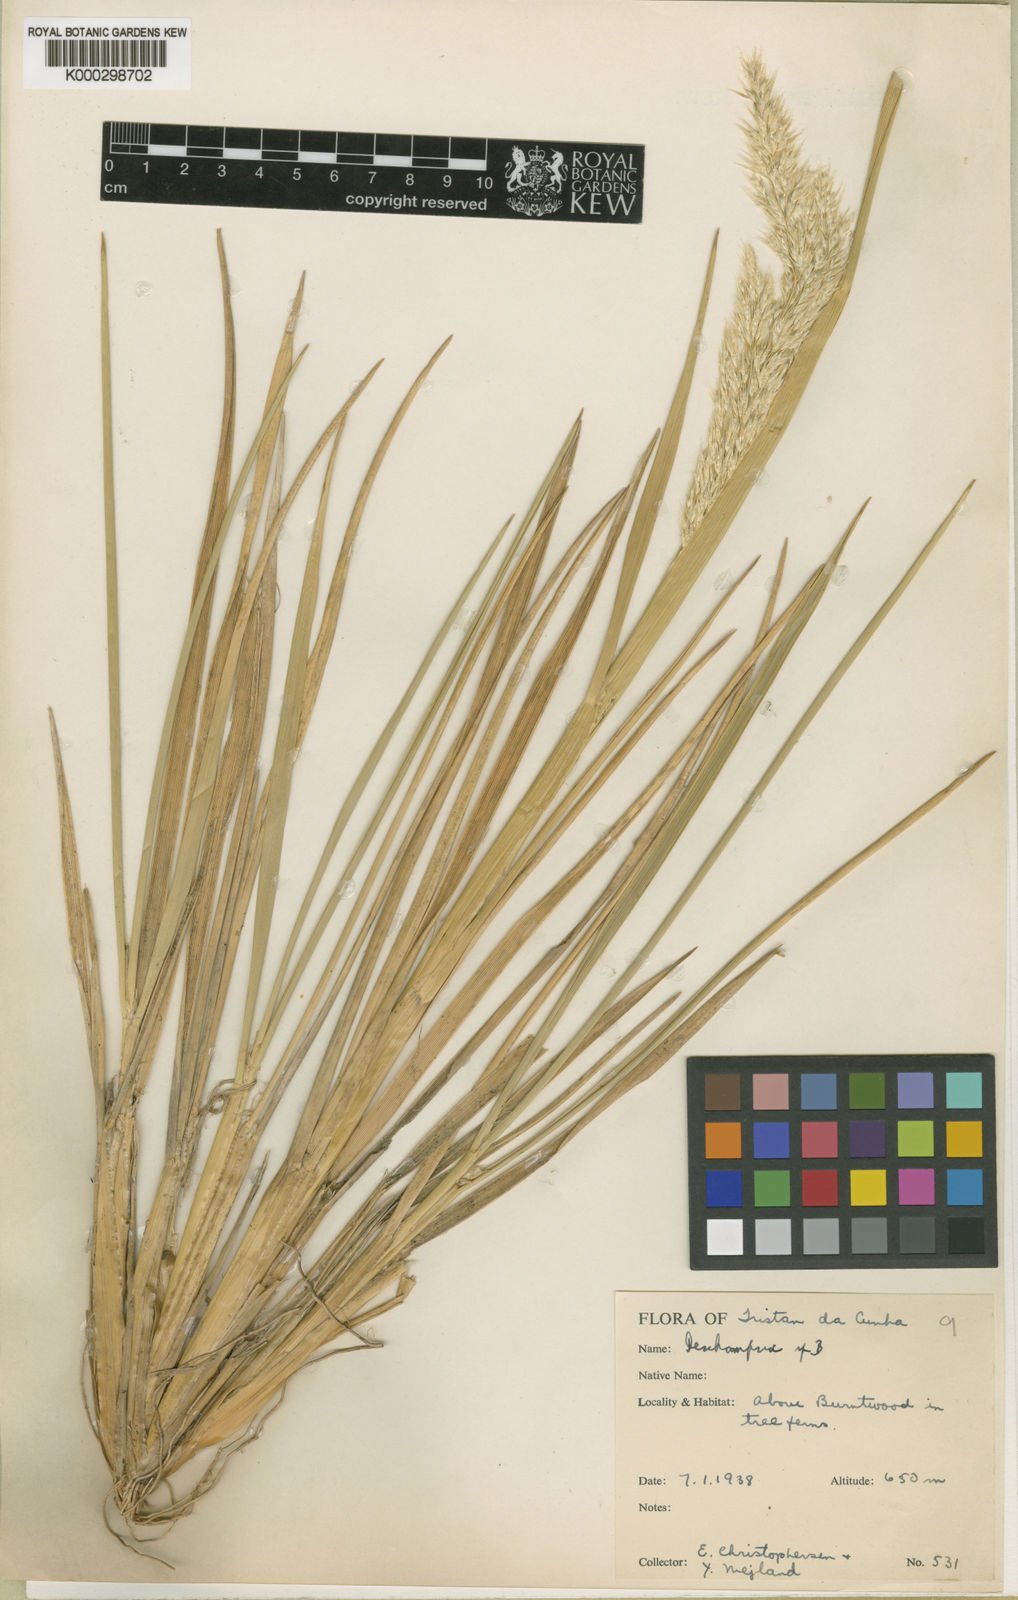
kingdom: Plantae
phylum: Tracheophyta
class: Liliopsida
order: Poales
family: Poaceae
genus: Deschampsia
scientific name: Deschampsia
